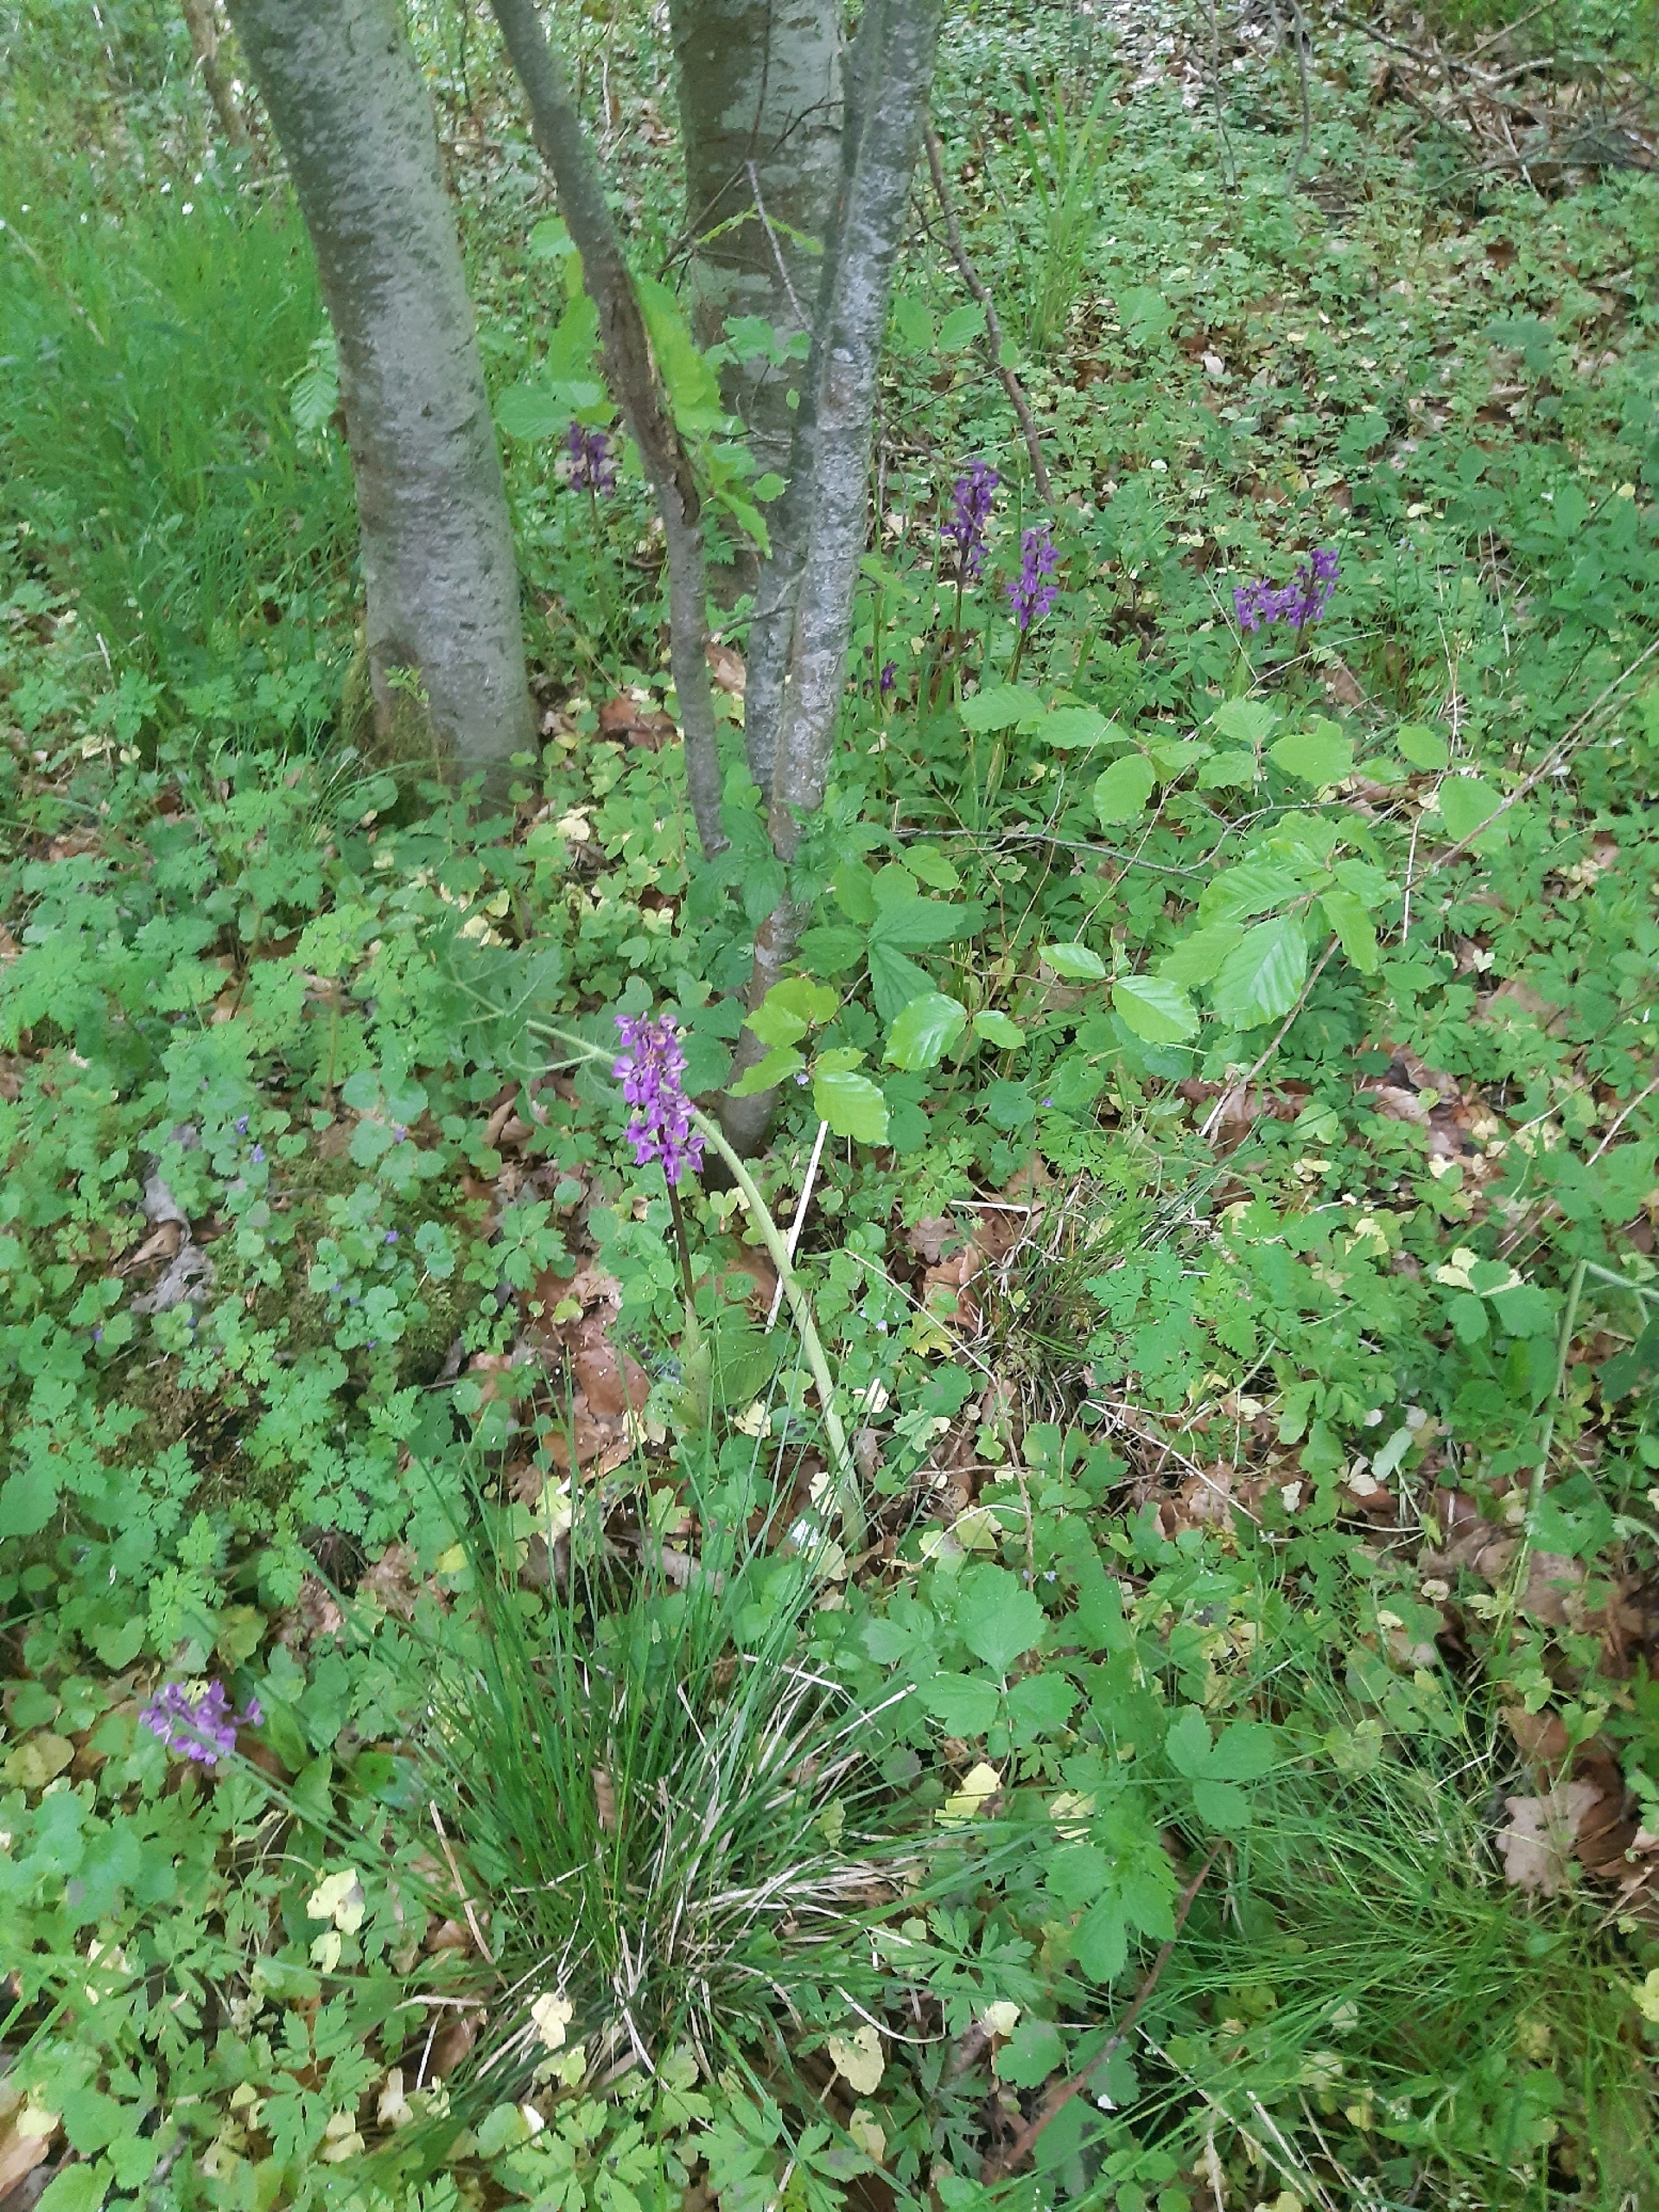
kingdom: Plantae
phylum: Tracheophyta
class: Liliopsida
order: Asparagales
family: Orchidaceae
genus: Orchis
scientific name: Orchis mascula
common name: Tyndakset gøgeurt
